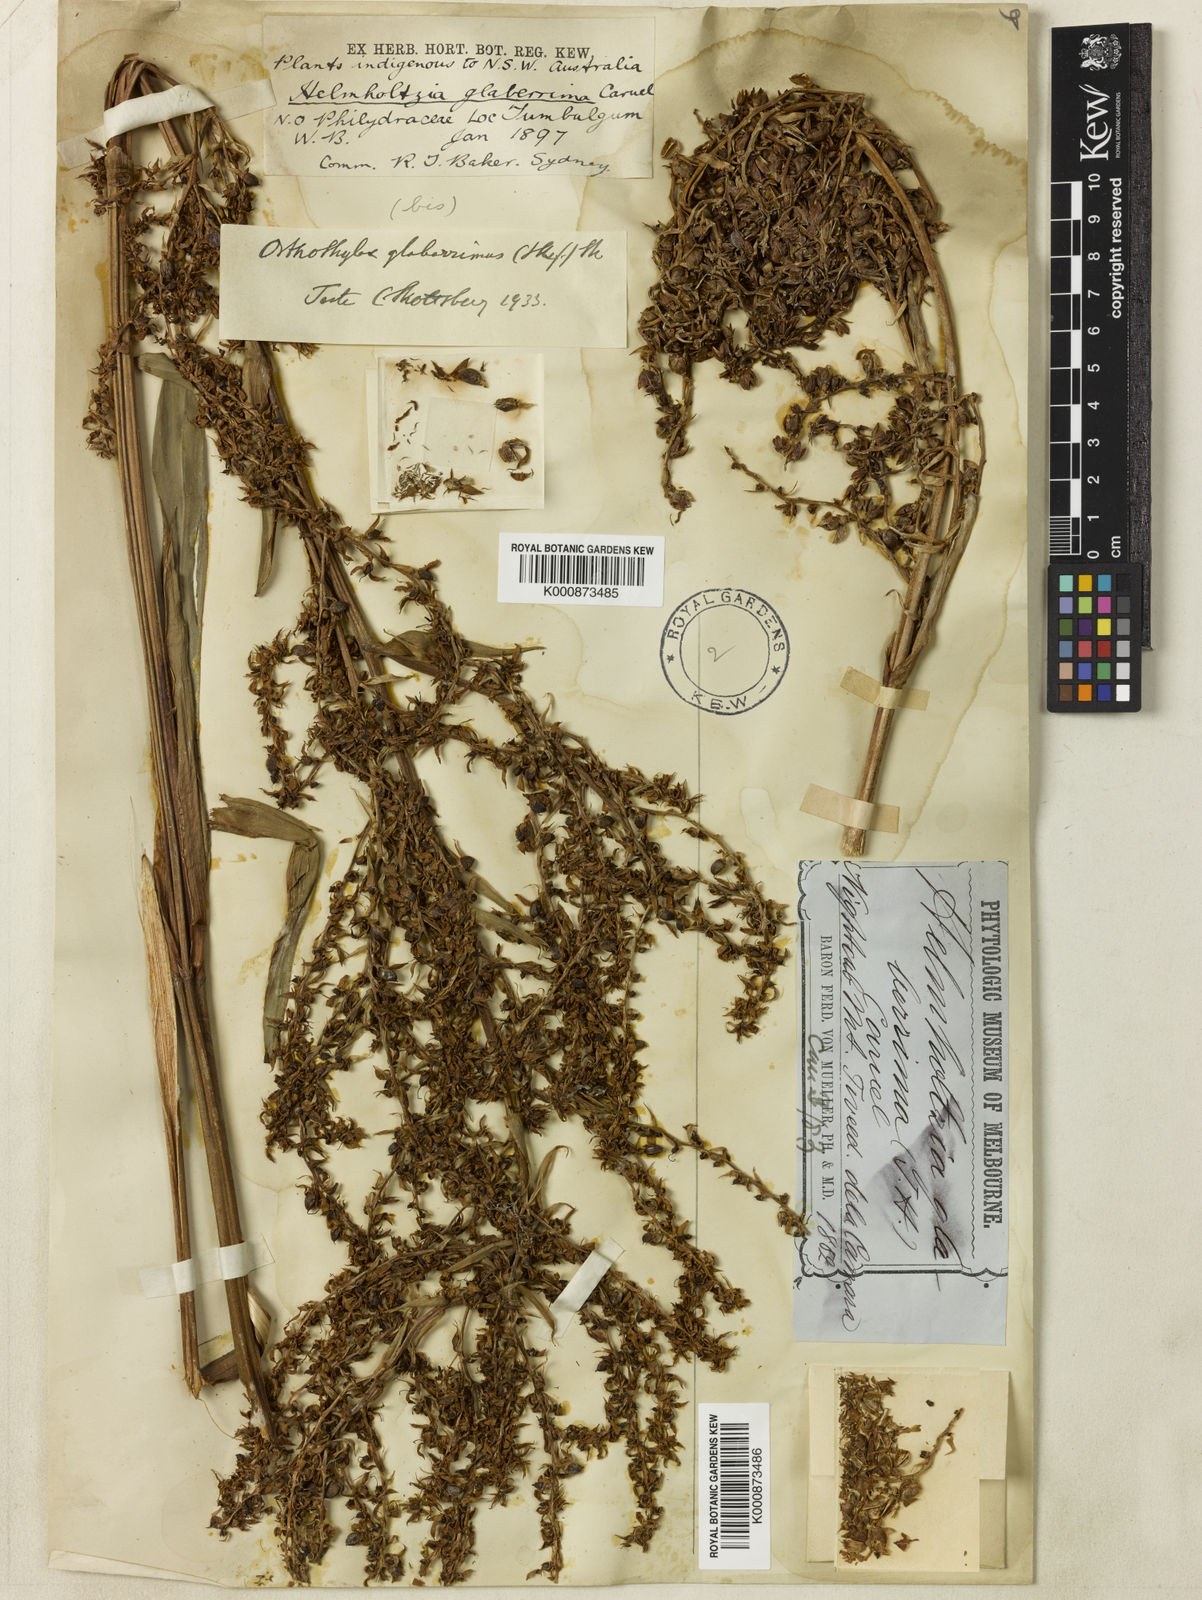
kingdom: Plantae
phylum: Tracheophyta
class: Liliopsida
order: Commelinales
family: Philydraceae
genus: Helmholtzia
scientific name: Helmholtzia glaberrima
